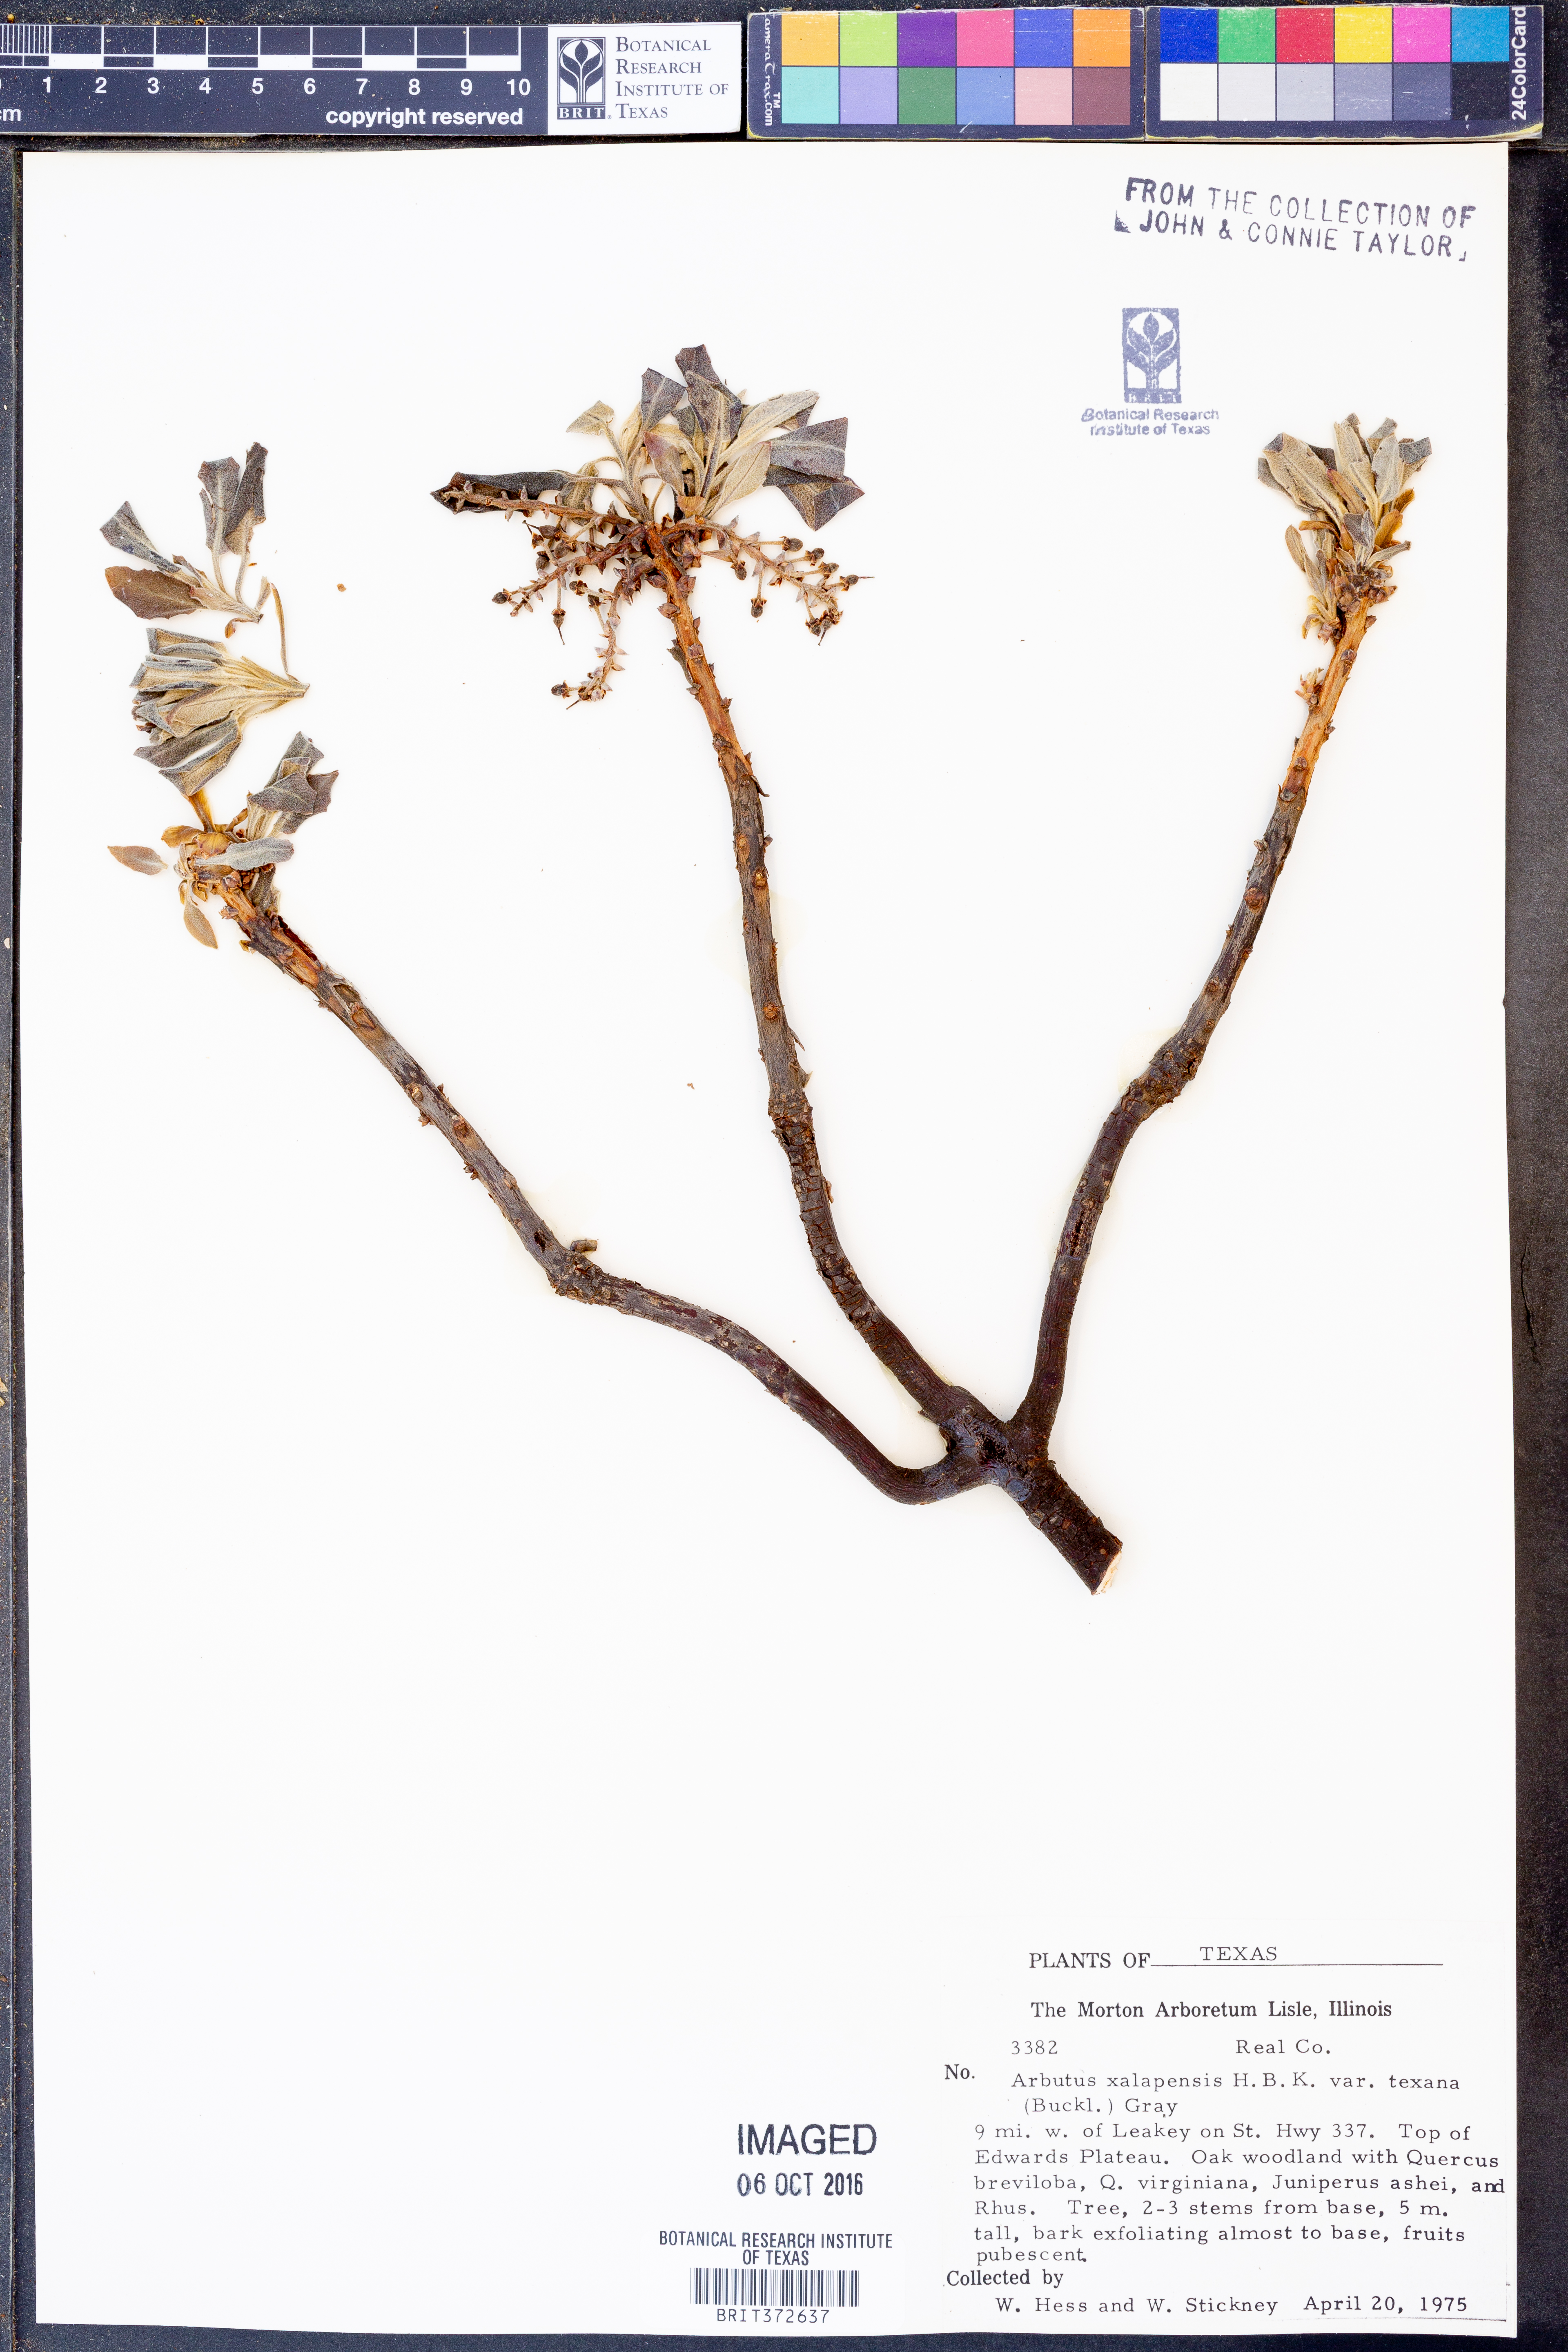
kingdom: Plantae
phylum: Tracheophyta
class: Magnoliopsida
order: Ericales
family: Ericaceae
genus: Arbutus
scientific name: Arbutus xalapensis
